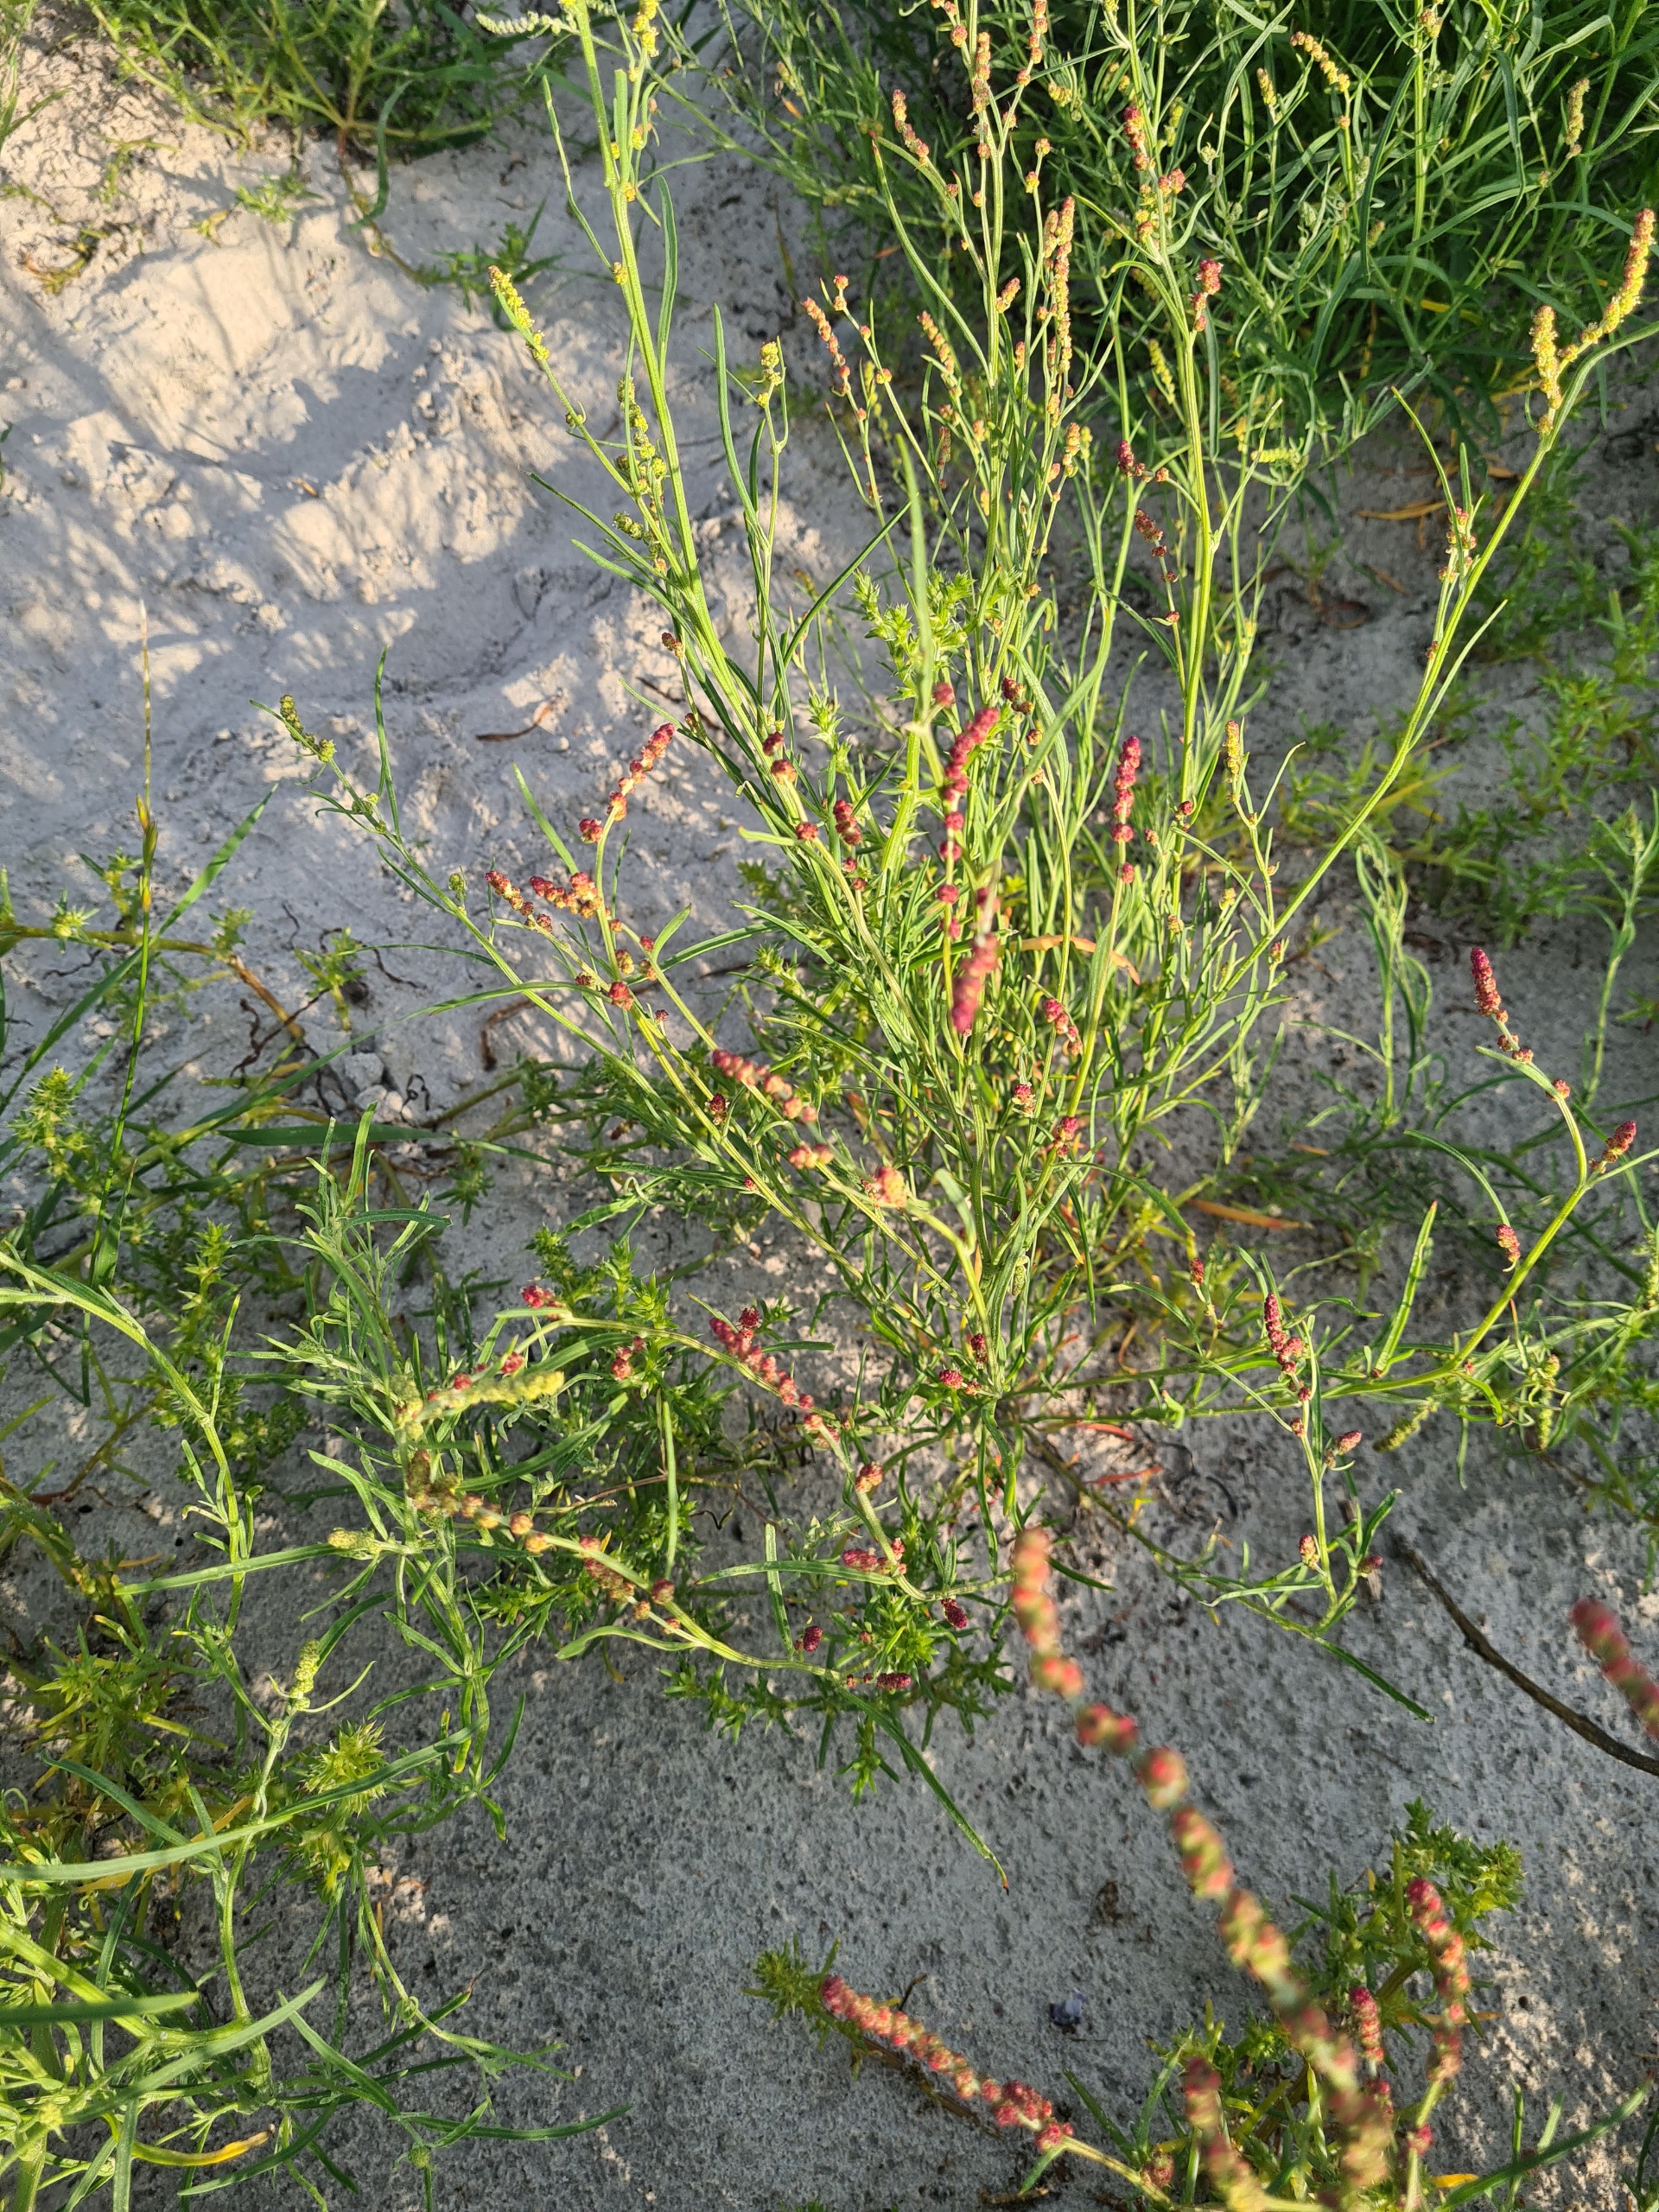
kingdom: Plantae
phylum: Tracheophyta
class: Magnoliopsida
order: Caryophyllales
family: Amaranthaceae
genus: Atriplex
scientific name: Atriplex littoralis
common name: Strand-mælde
